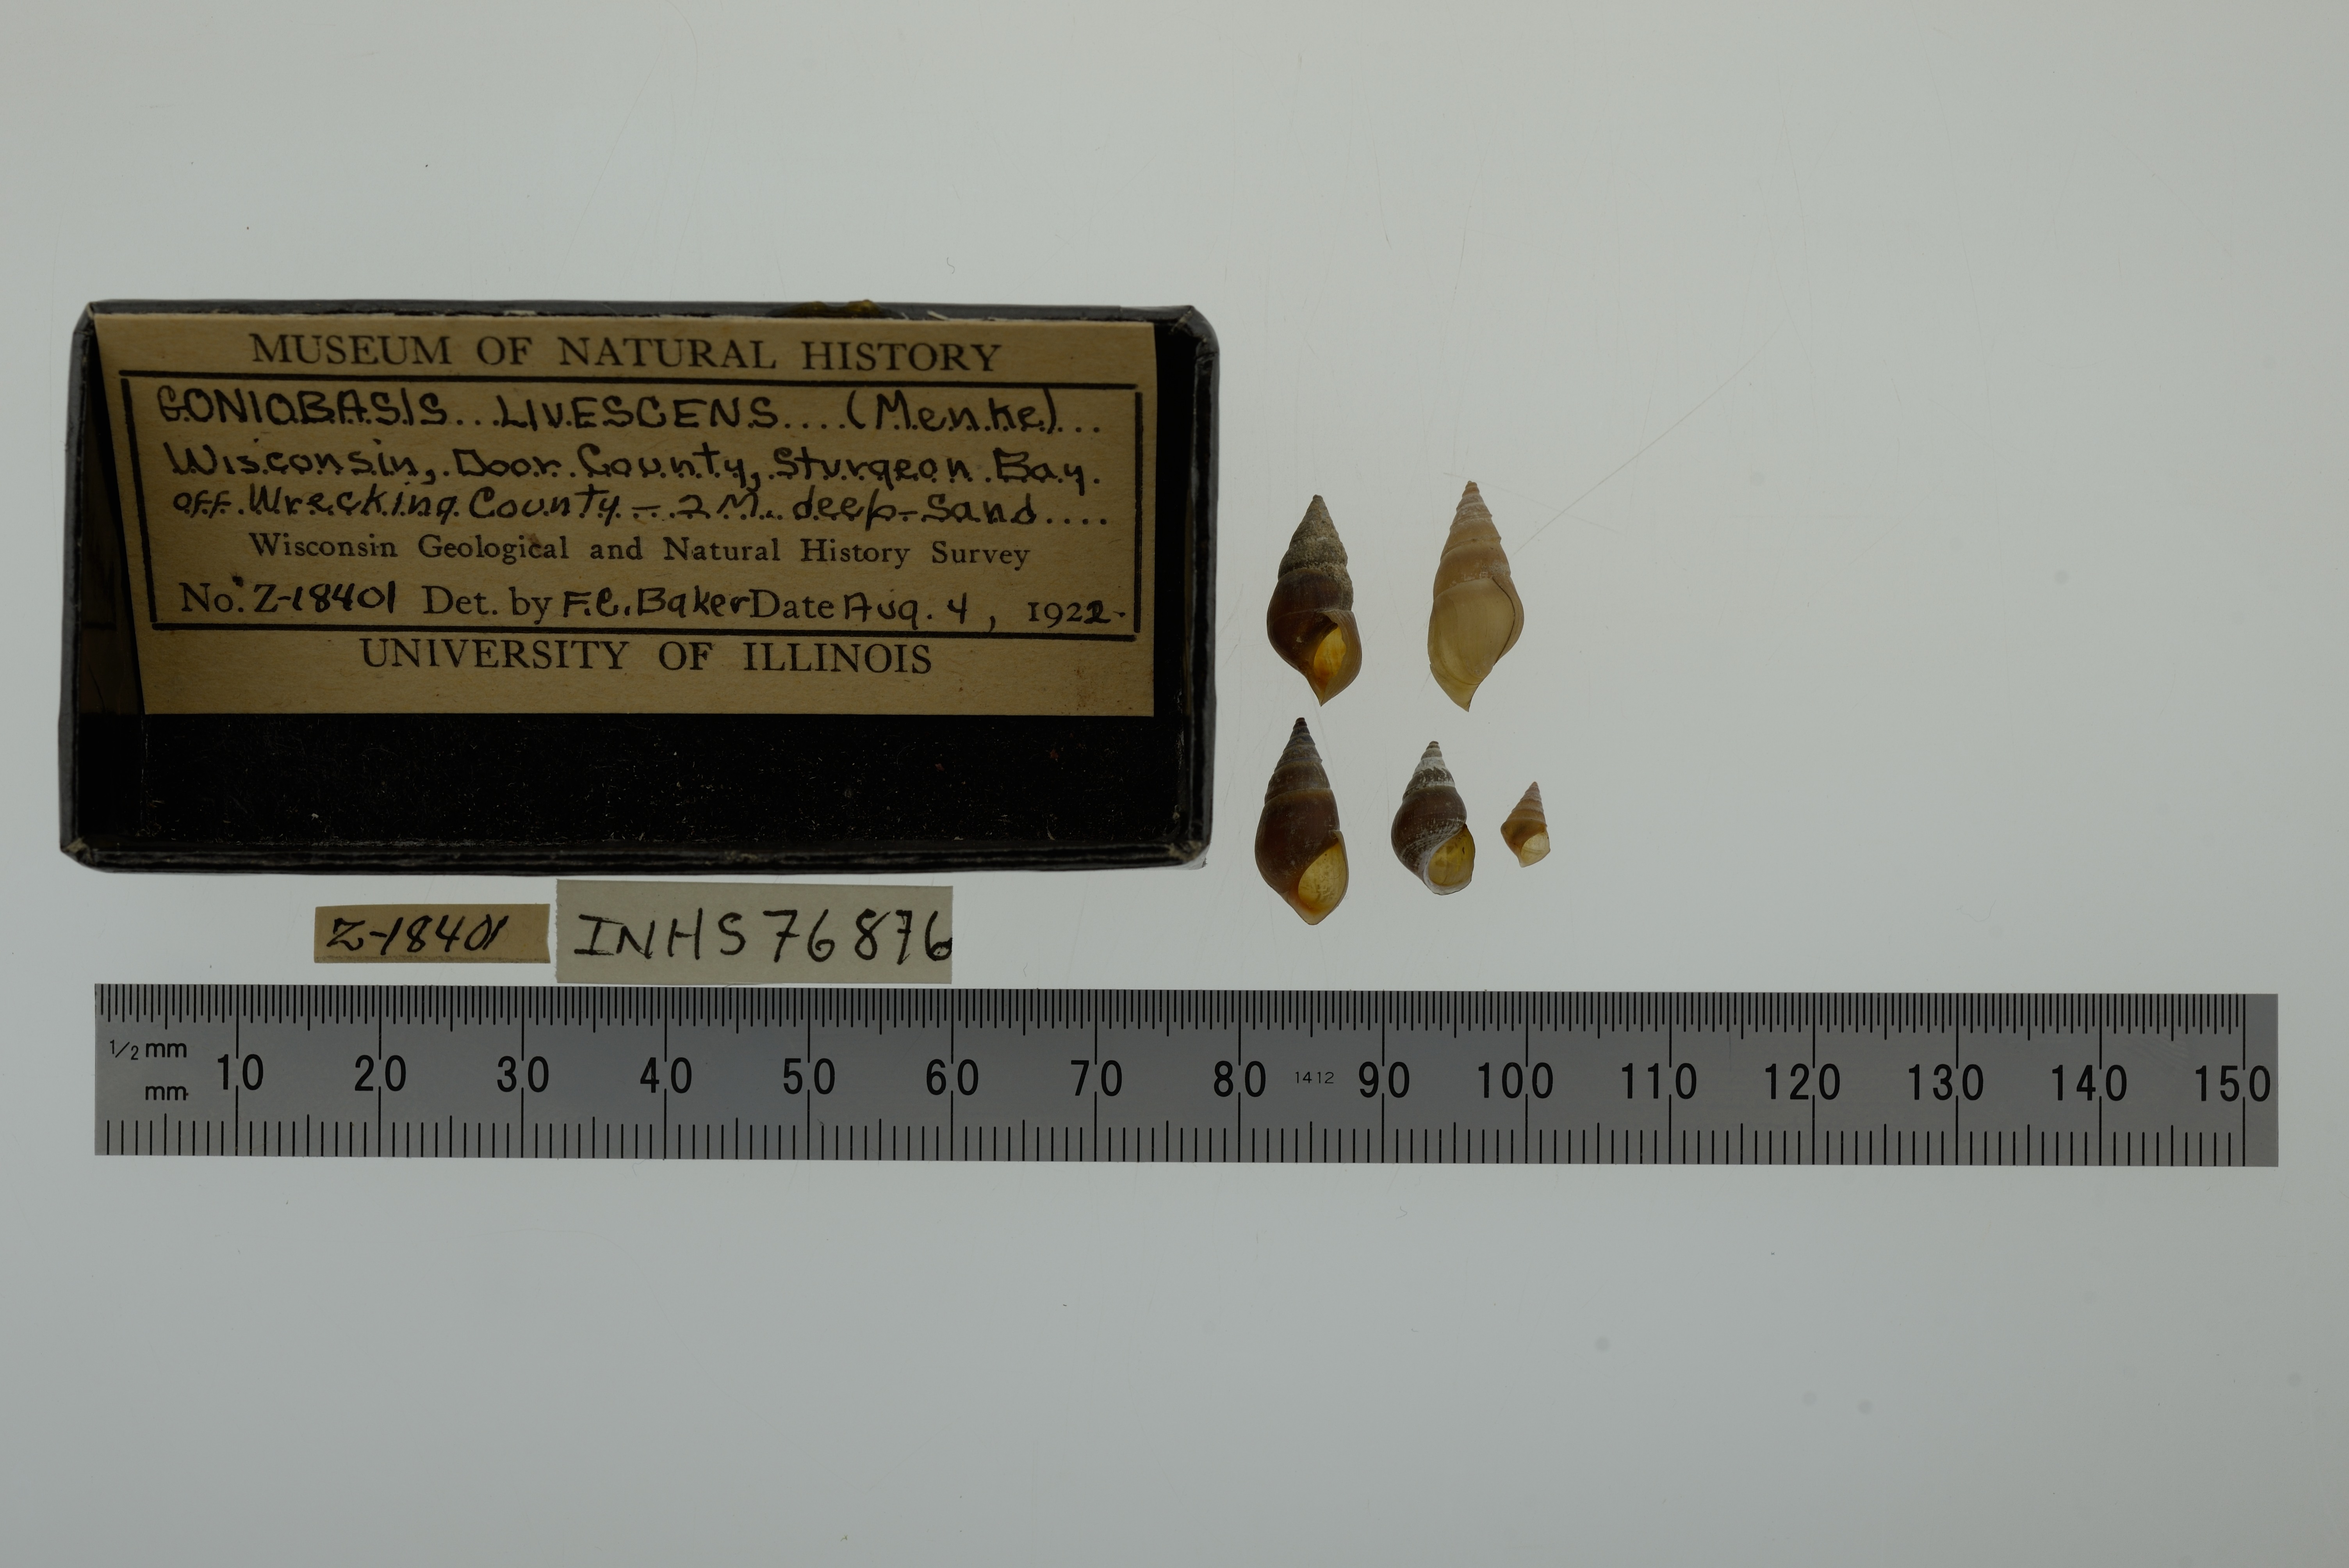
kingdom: Animalia
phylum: Mollusca
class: Gastropoda
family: Pleuroceridae
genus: Elimia
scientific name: Elimia livescens
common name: Liver elimia
